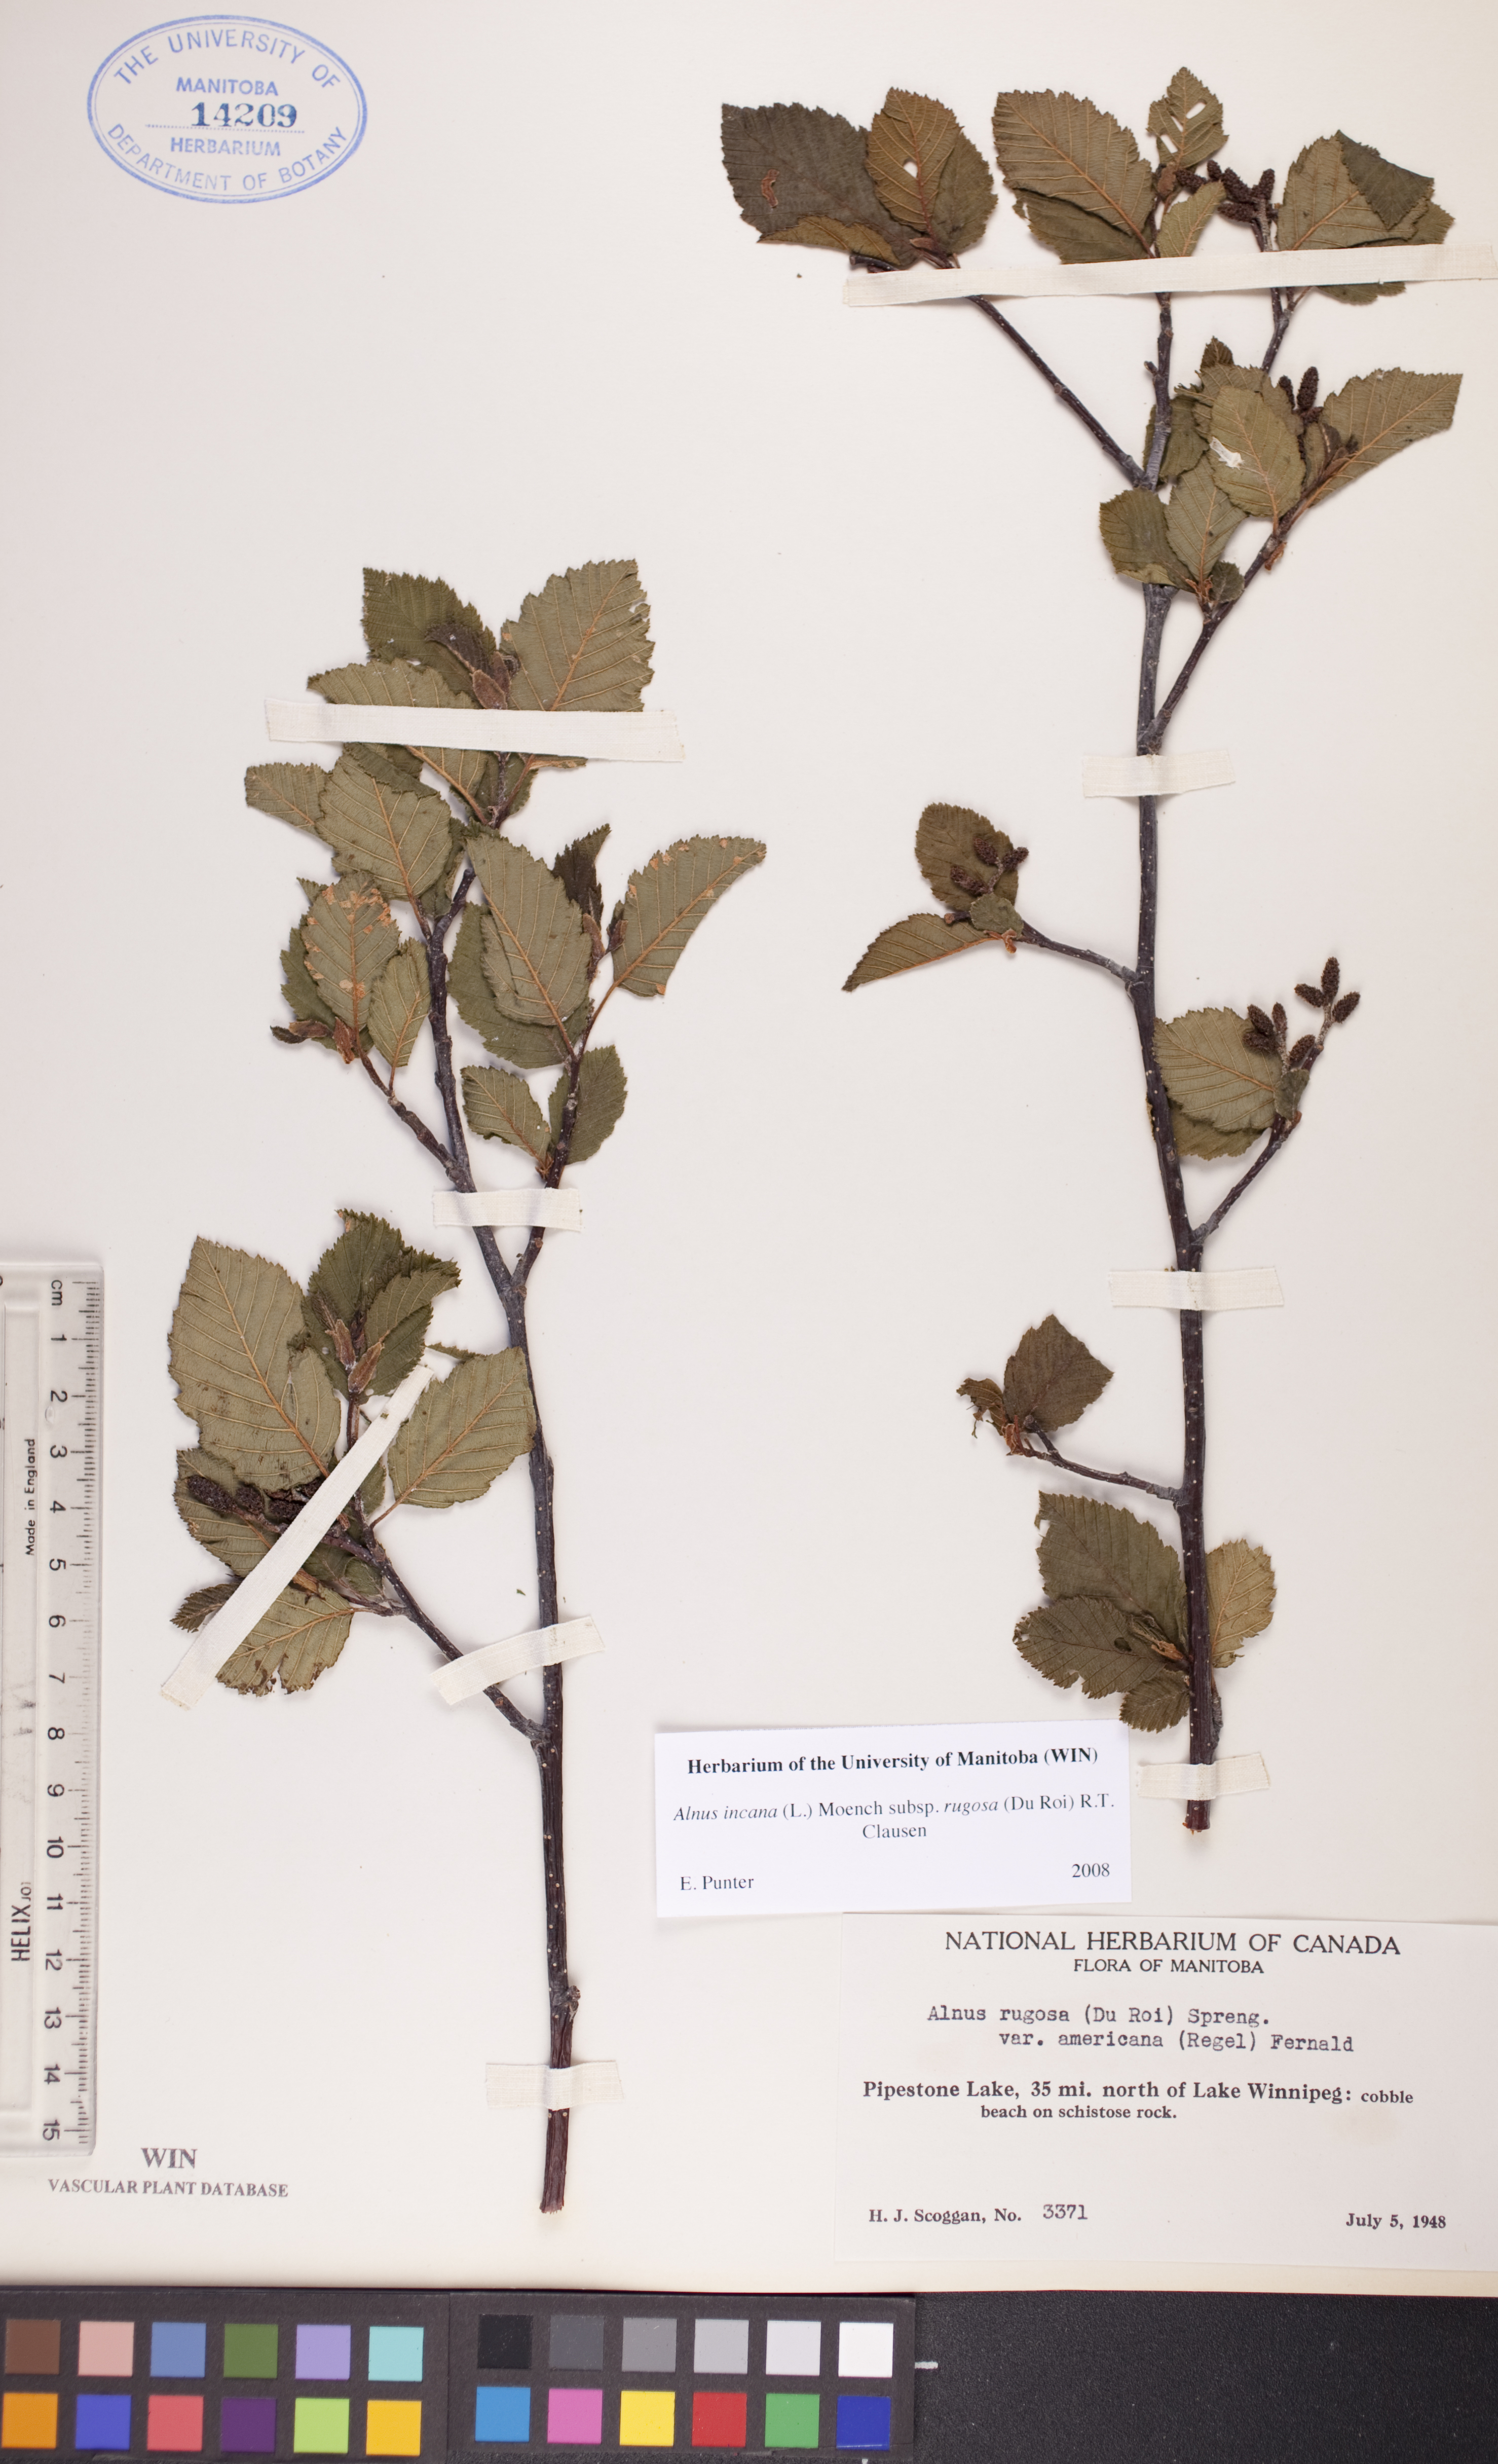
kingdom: Plantae
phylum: Tracheophyta
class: Magnoliopsida
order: Fagales
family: Betulaceae
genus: Alnus
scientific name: Alnus incana
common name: Grey alder
